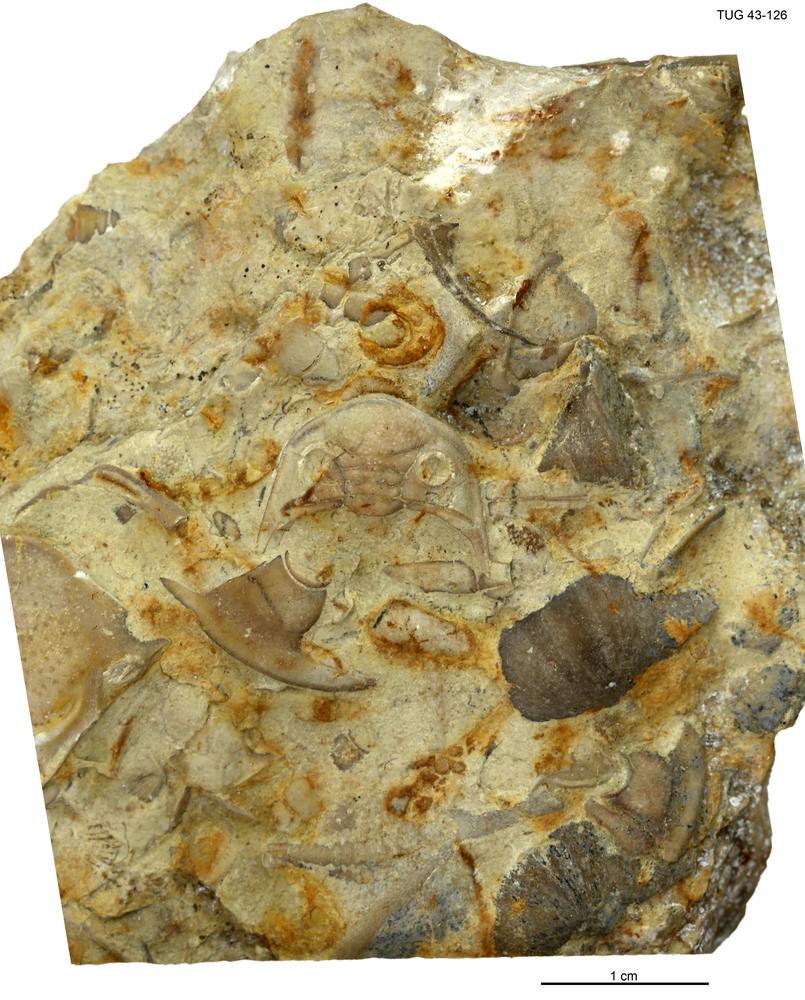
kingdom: Animalia
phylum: Arthropoda
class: Trilobita
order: Phacopida
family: Pterygometopidae
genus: Pterygometopus
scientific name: Pterygometopus
